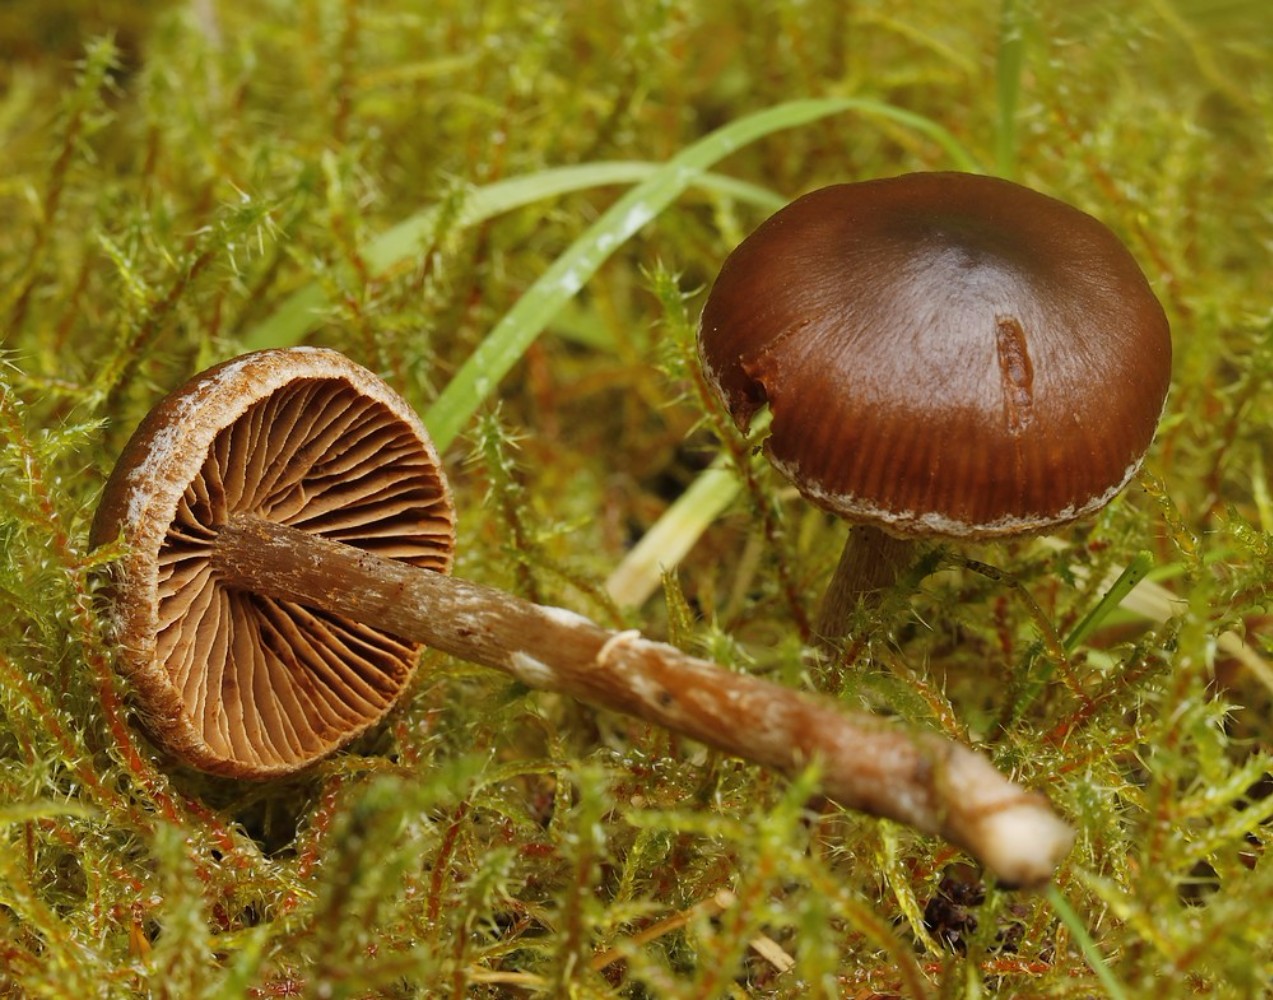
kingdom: Fungi
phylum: Basidiomycota
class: Agaricomycetes
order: Agaricales
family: Cortinariaceae
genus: Cortinarius
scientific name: Cortinarius
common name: pelargonie-slørhat
